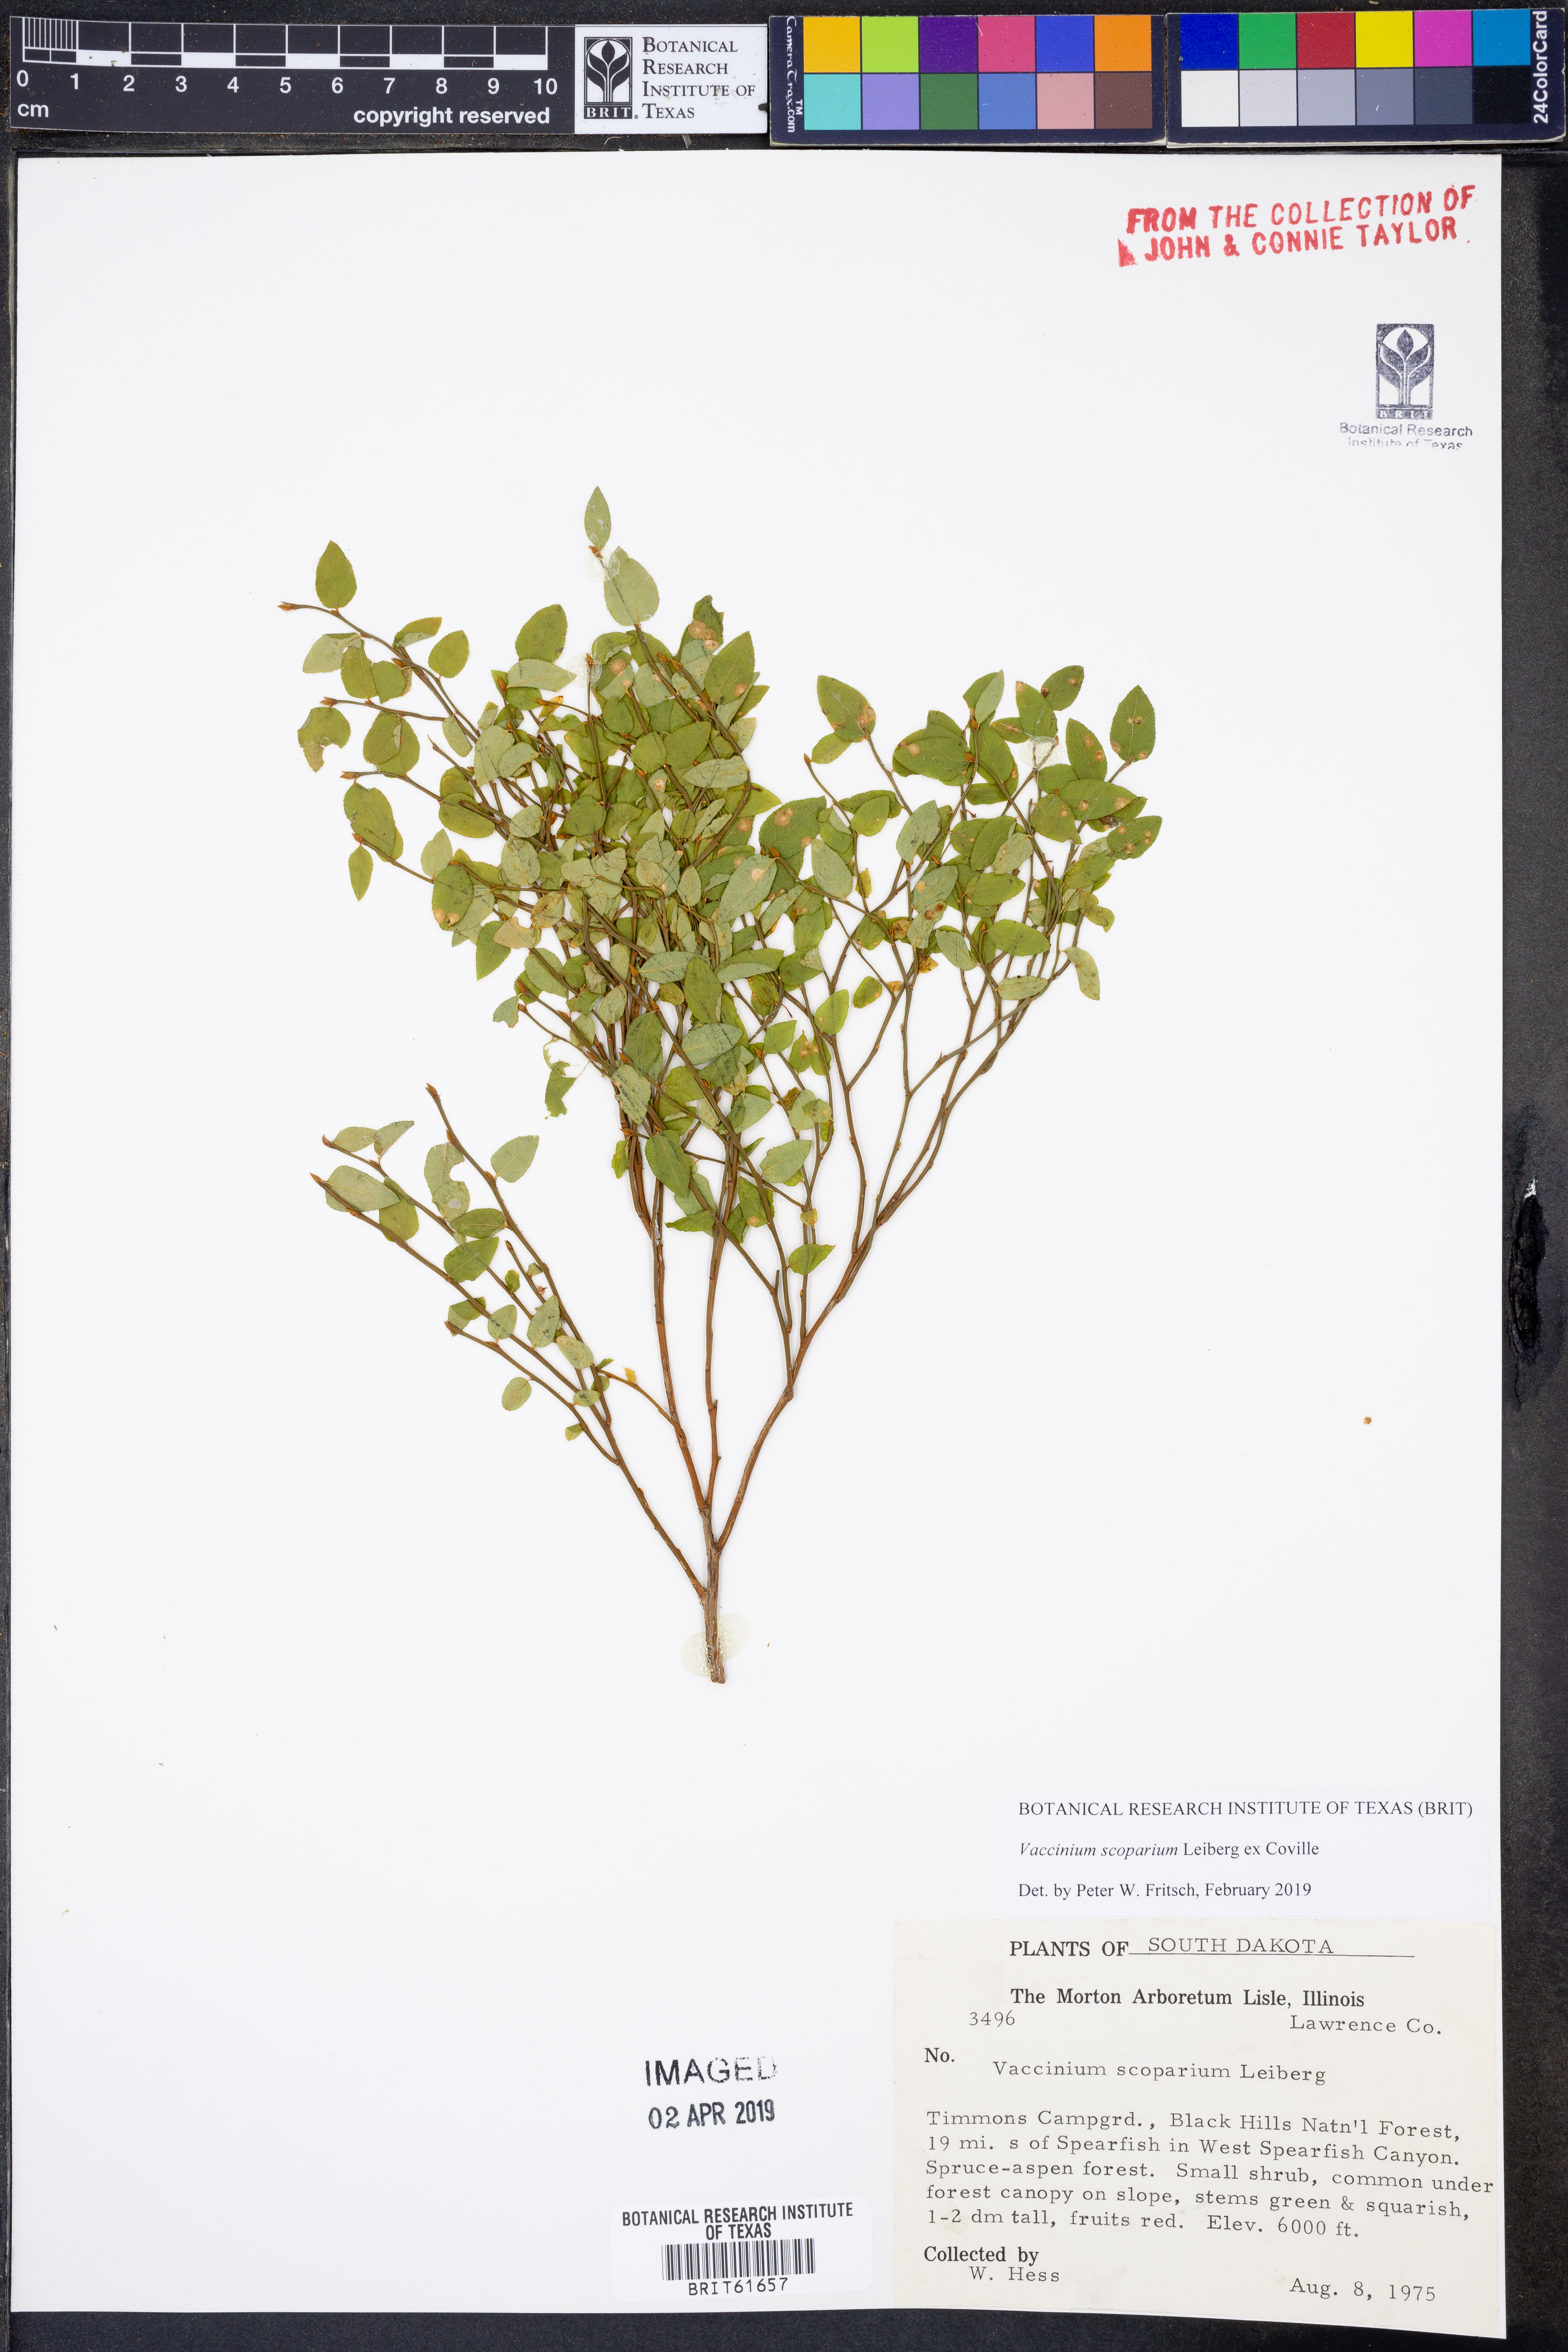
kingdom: Plantae
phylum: Tracheophyta
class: Magnoliopsida
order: Ericales
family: Ericaceae
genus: Vaccinium
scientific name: Vaccinium scoparium
